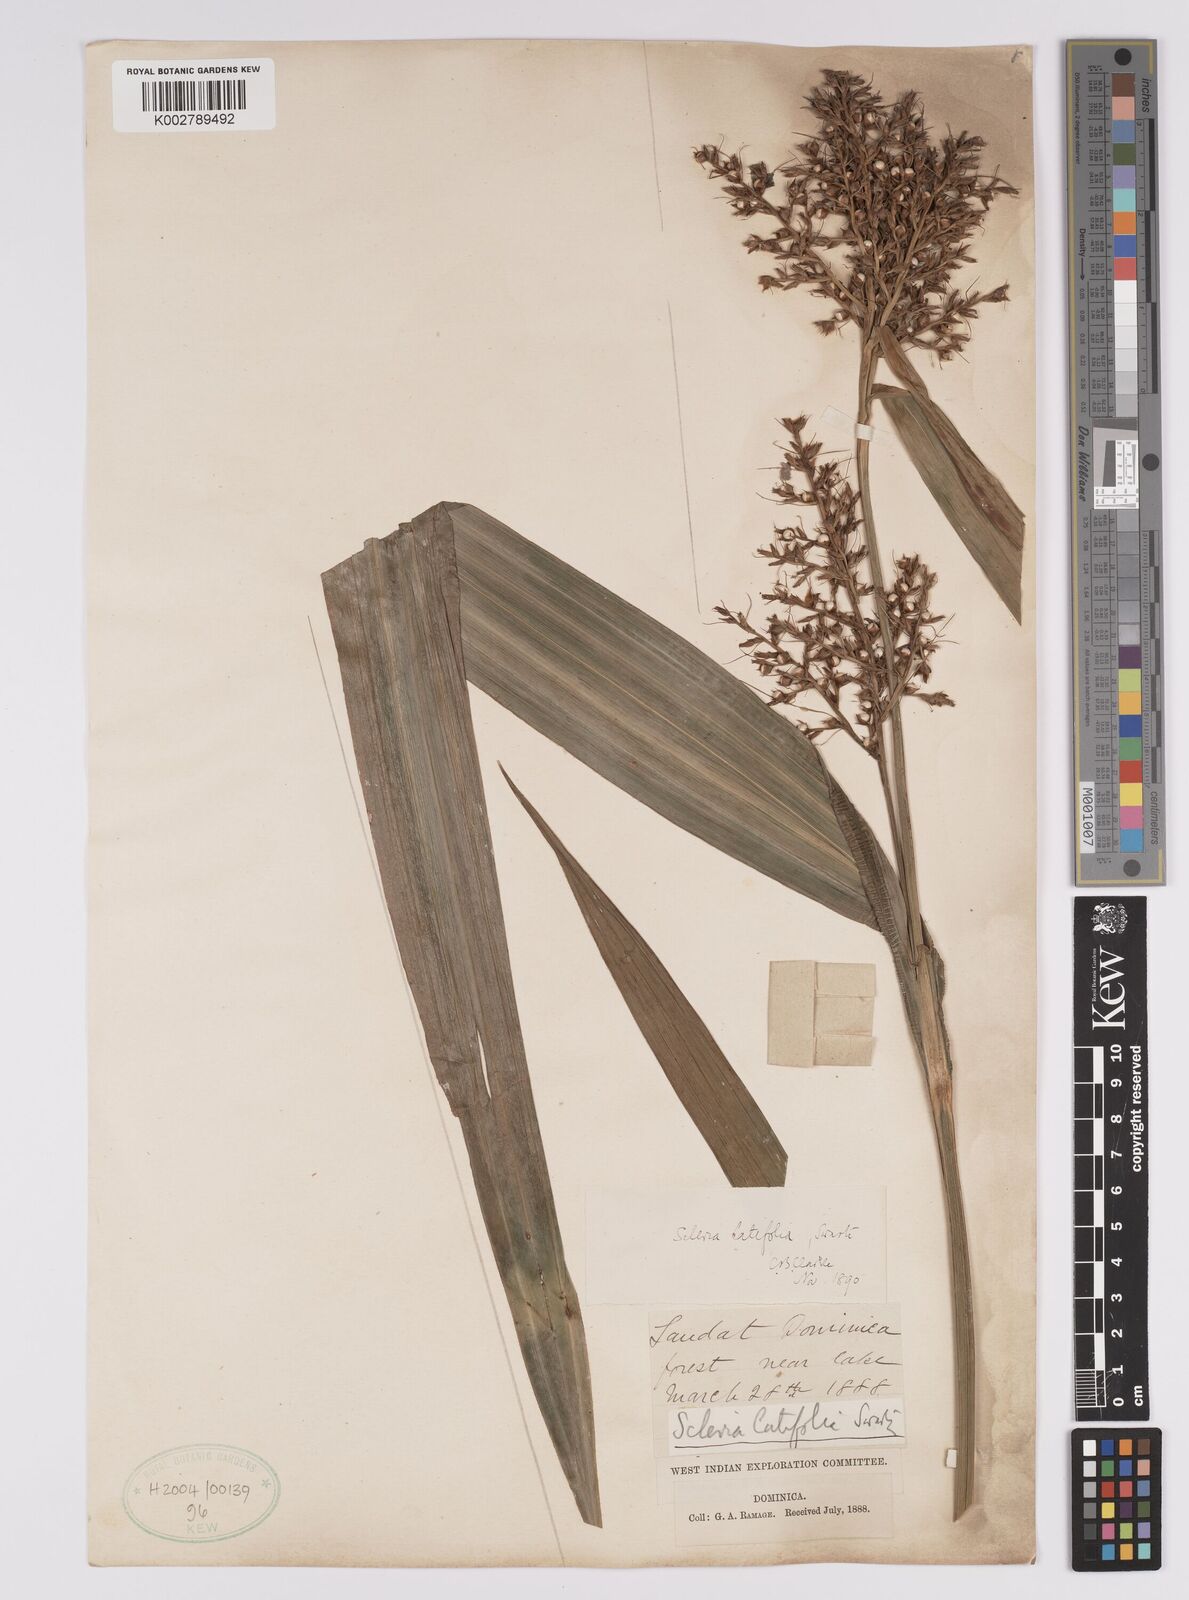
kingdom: Plantae
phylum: Tracheophyta
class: Liliopsida
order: Poales
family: Cyperaceae
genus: Scleria
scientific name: Scleria latifolia
